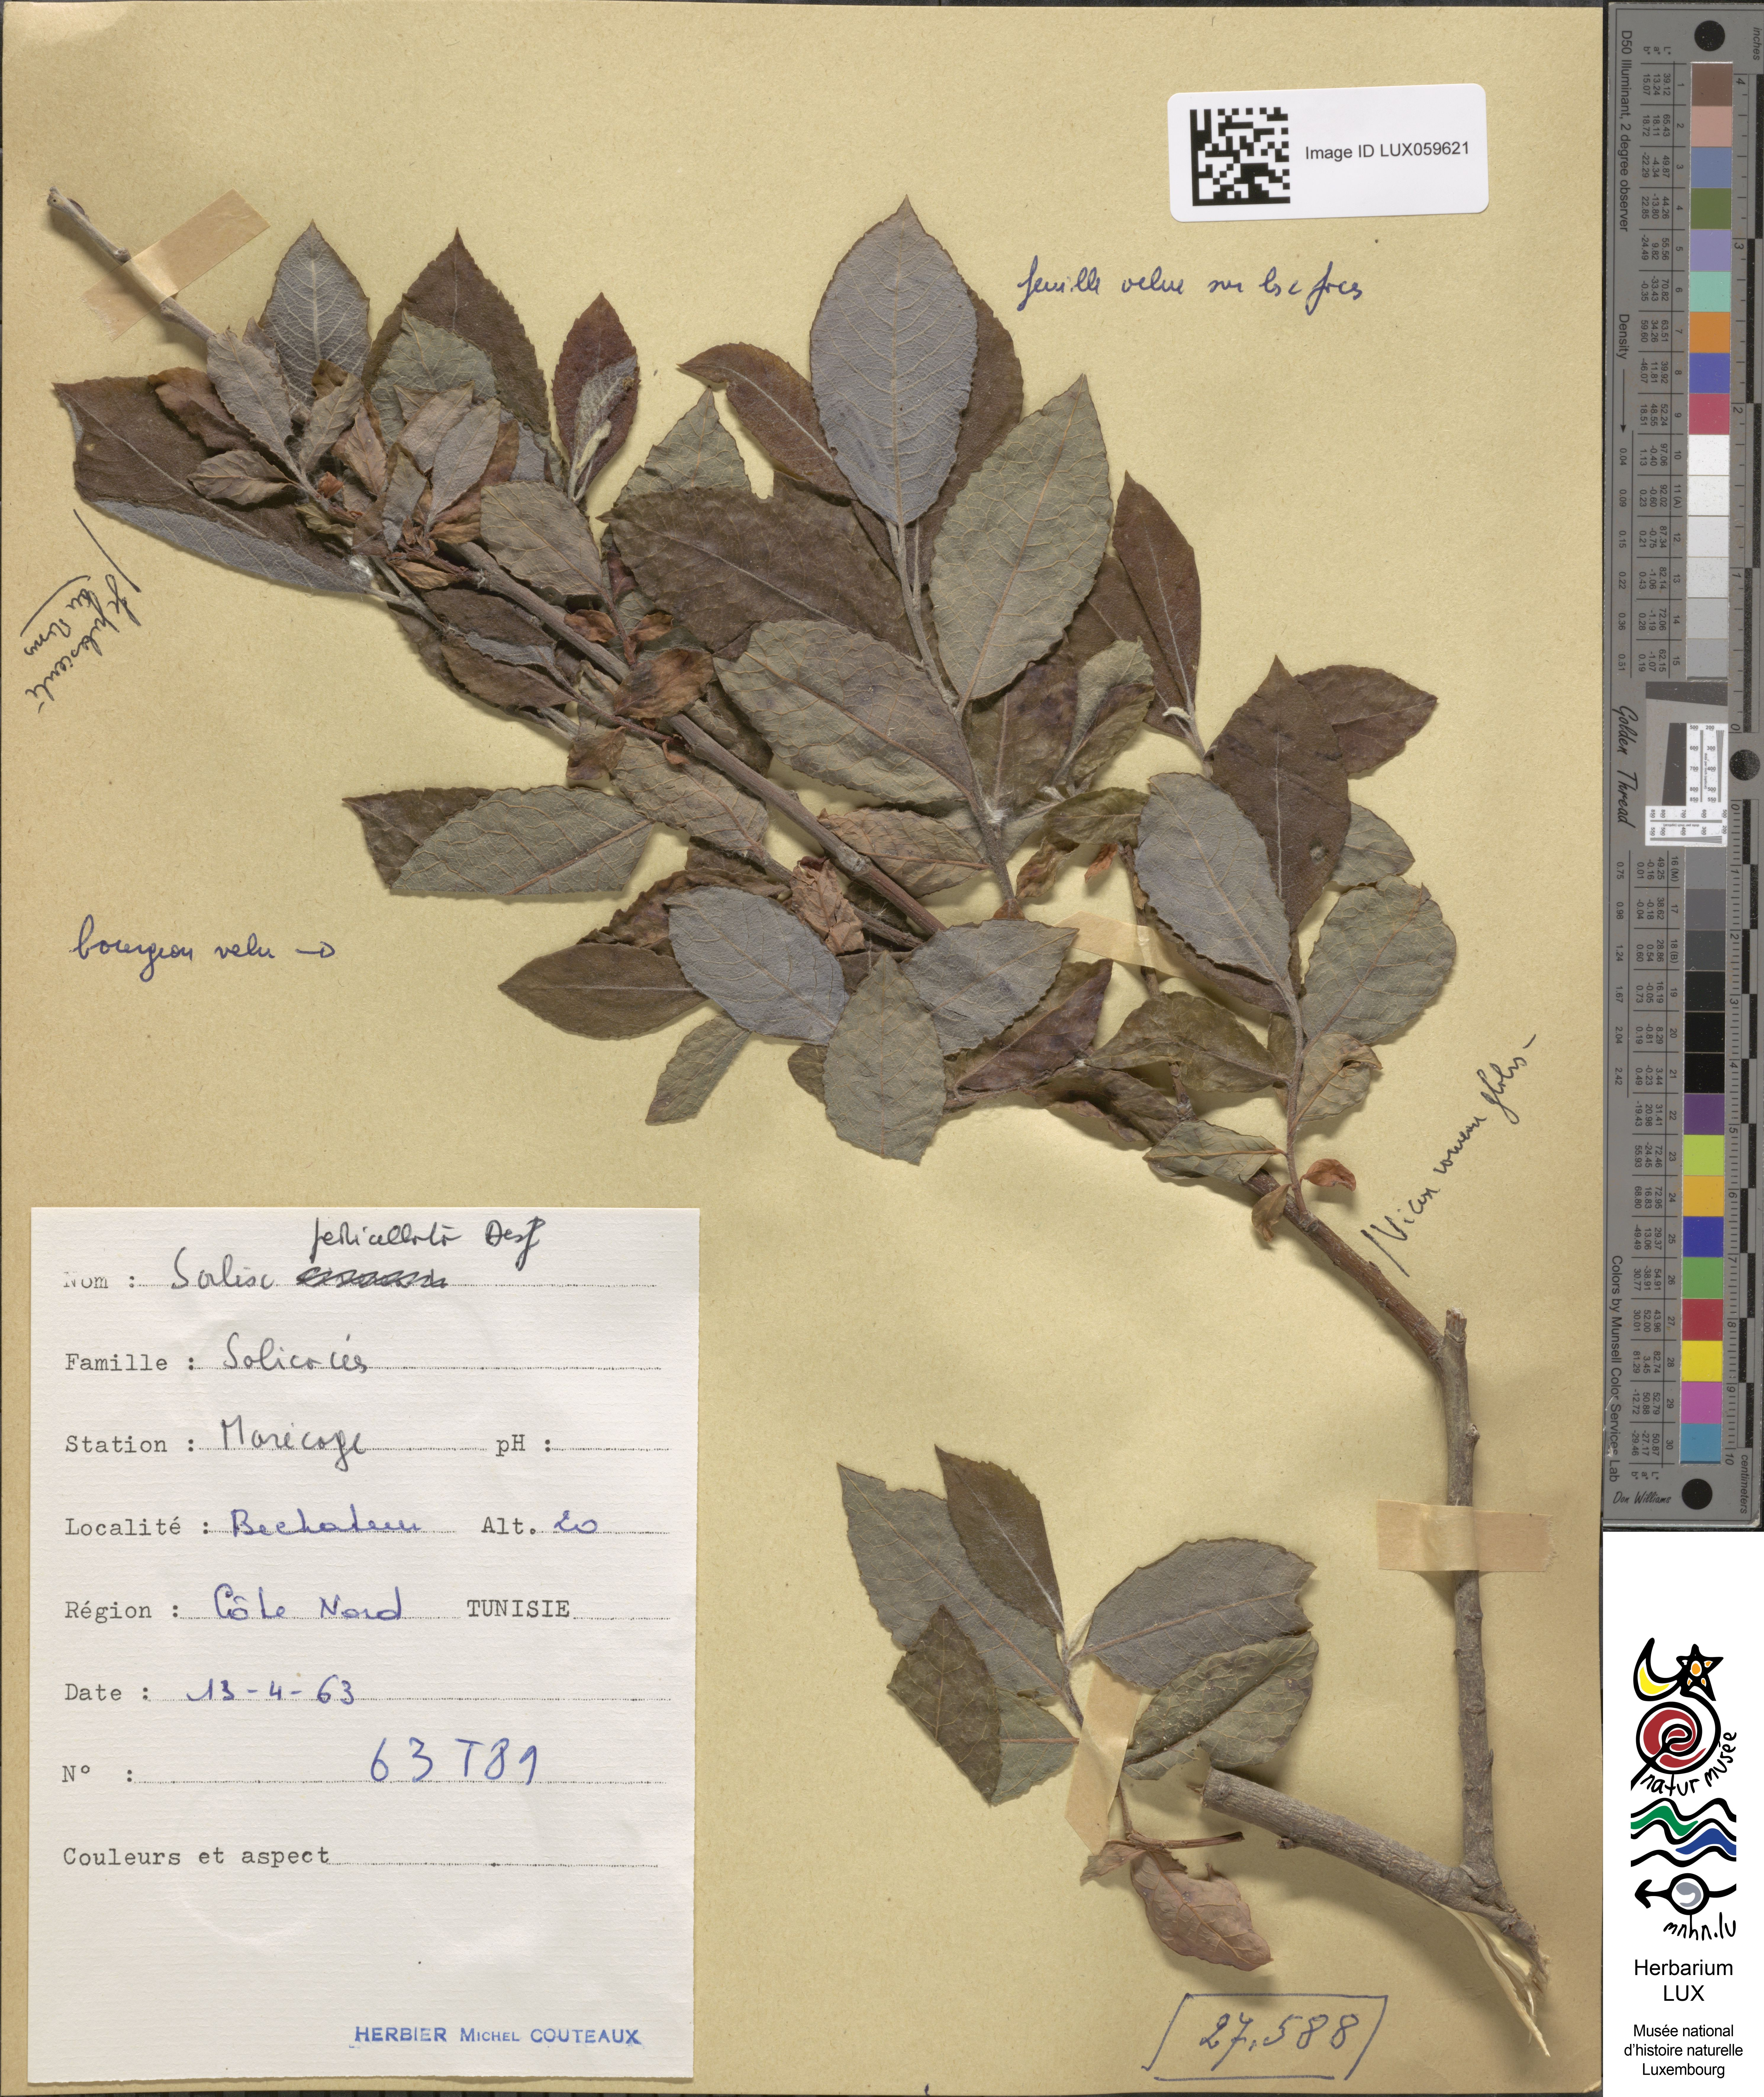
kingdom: Plantae
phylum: Tracheophyta
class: Magnoliopsida
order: Malpighiales
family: Salicaceae
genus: Salix
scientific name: Salix pedicellata
